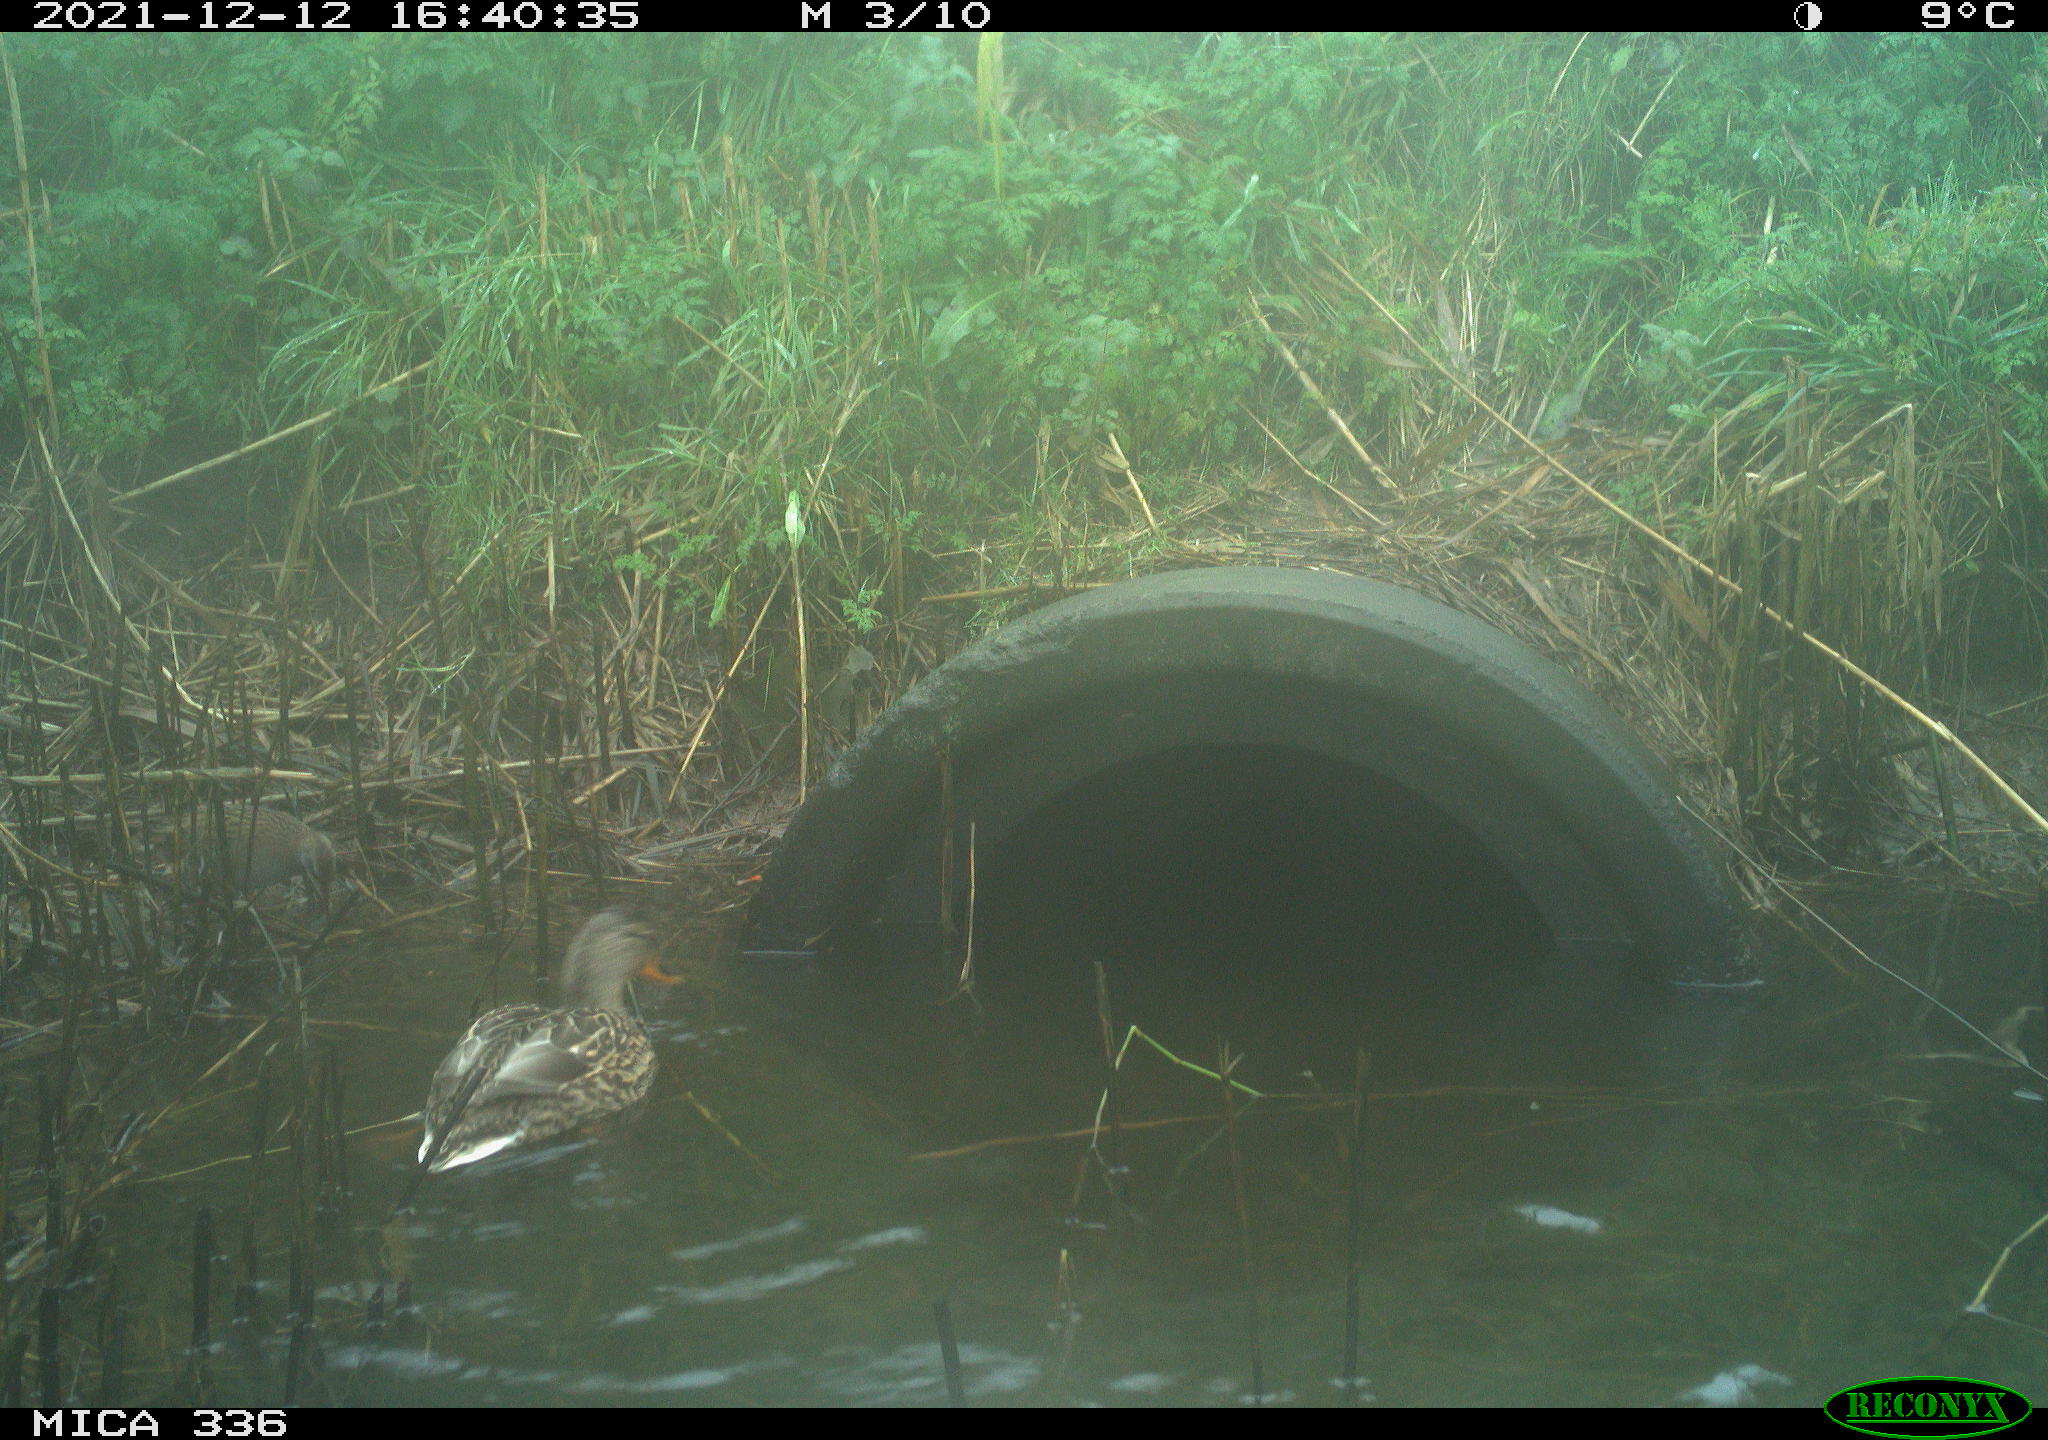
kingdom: Animalia
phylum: Chordata
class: Aves
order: Gruiformes
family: Rallidae
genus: Gallinula
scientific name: Gallinula chloropus
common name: Common moorhen
